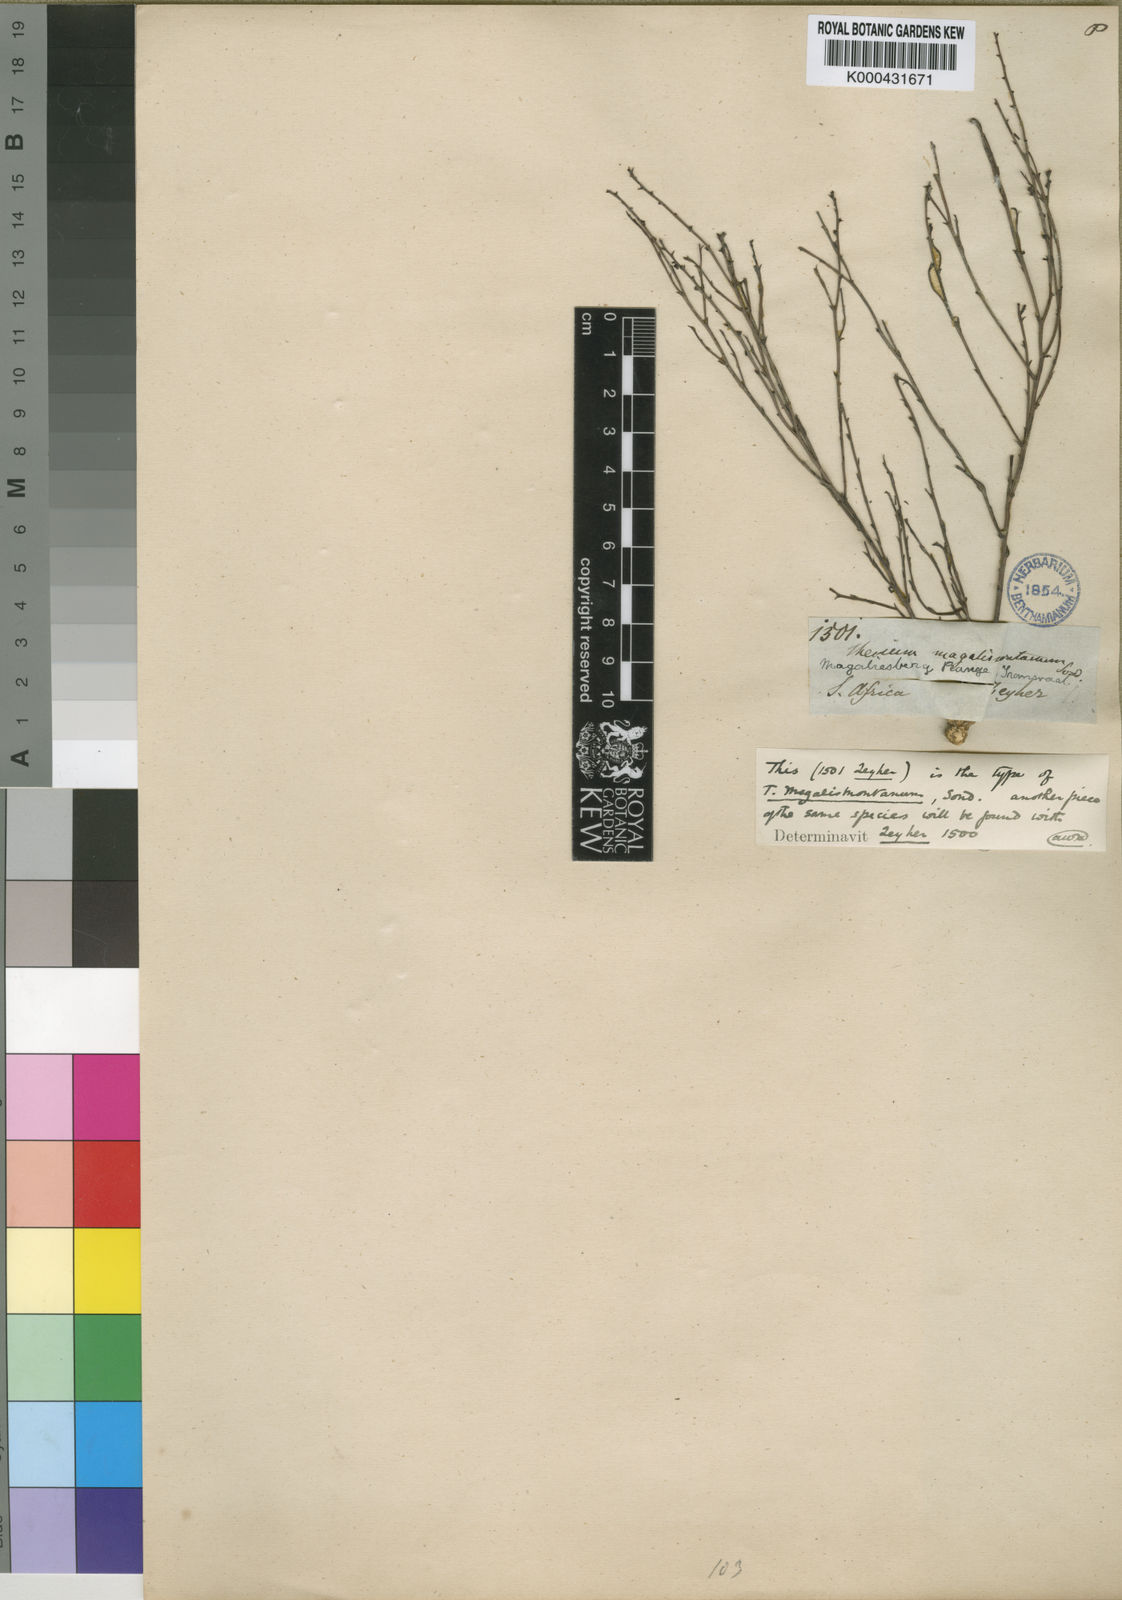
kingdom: Plantae
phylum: Tracheophyta
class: Magnoliopsida
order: Santalales
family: Thesiaceae
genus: Thesium
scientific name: Thesium magalismontanum
